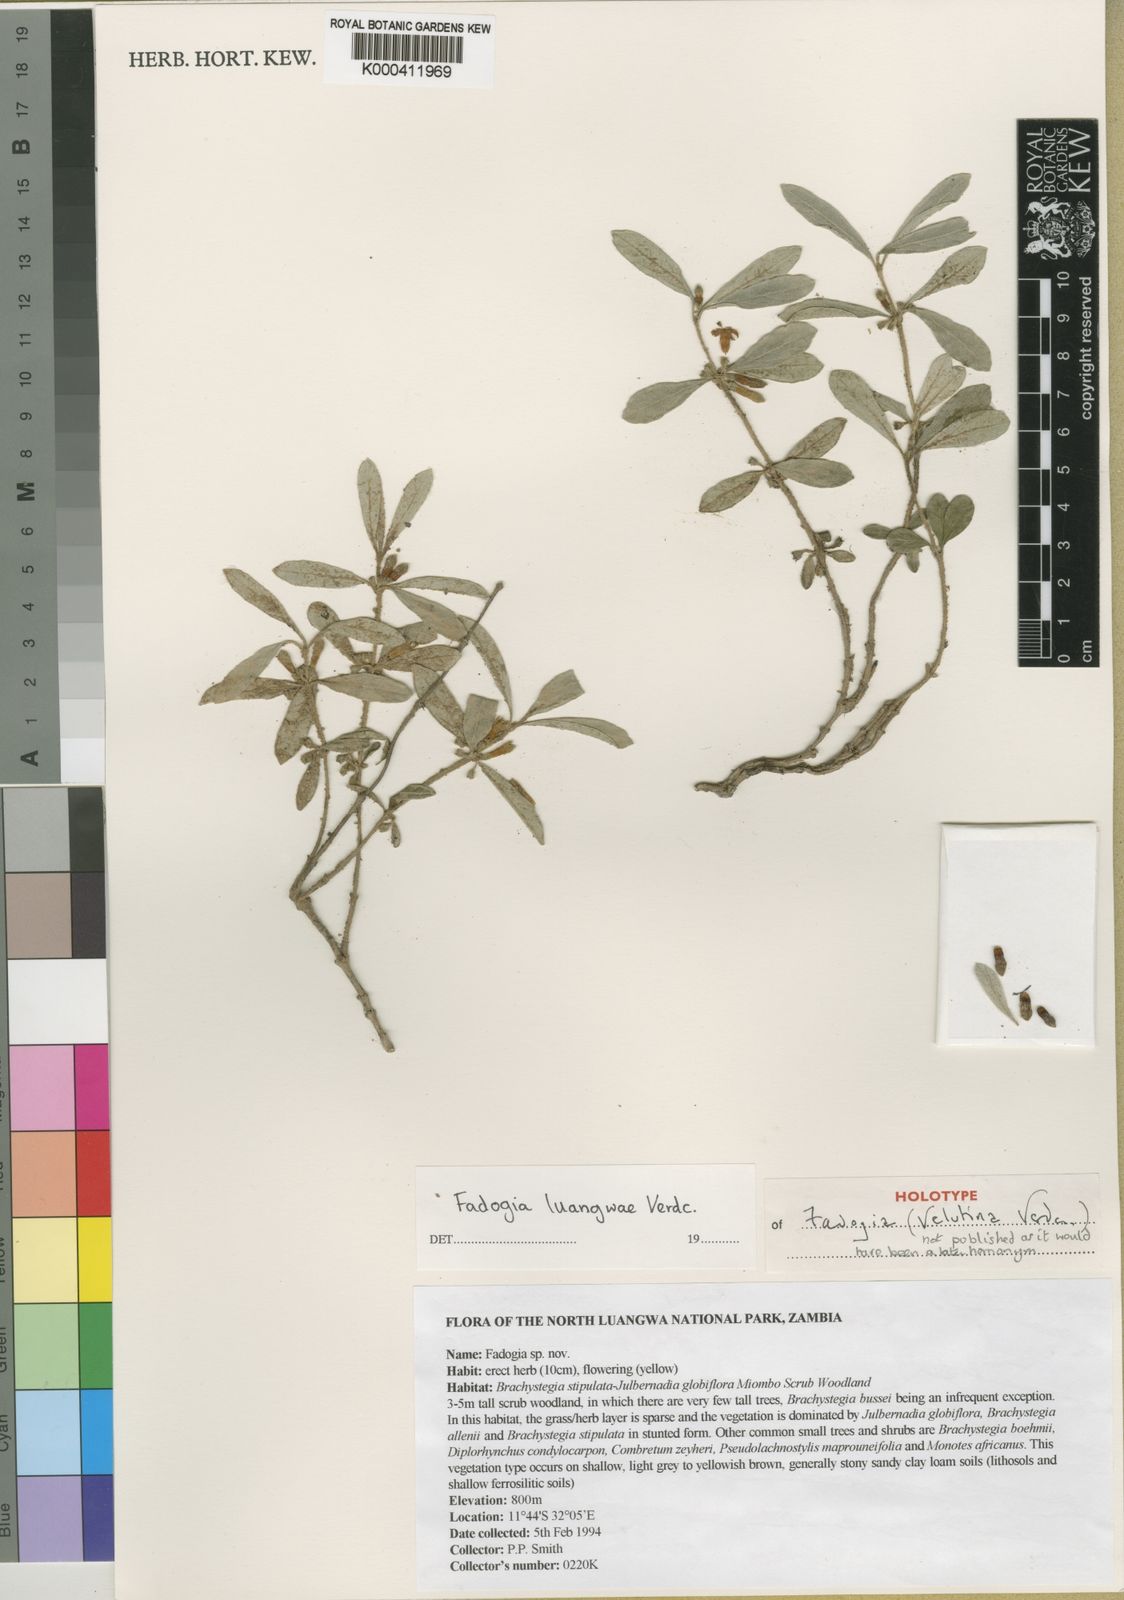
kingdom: Plantae
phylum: Tracheophyta
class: Magnoliopsida
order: Gentianales
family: Rubiaceae
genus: Fadogia
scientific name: Fadogia luangwae
